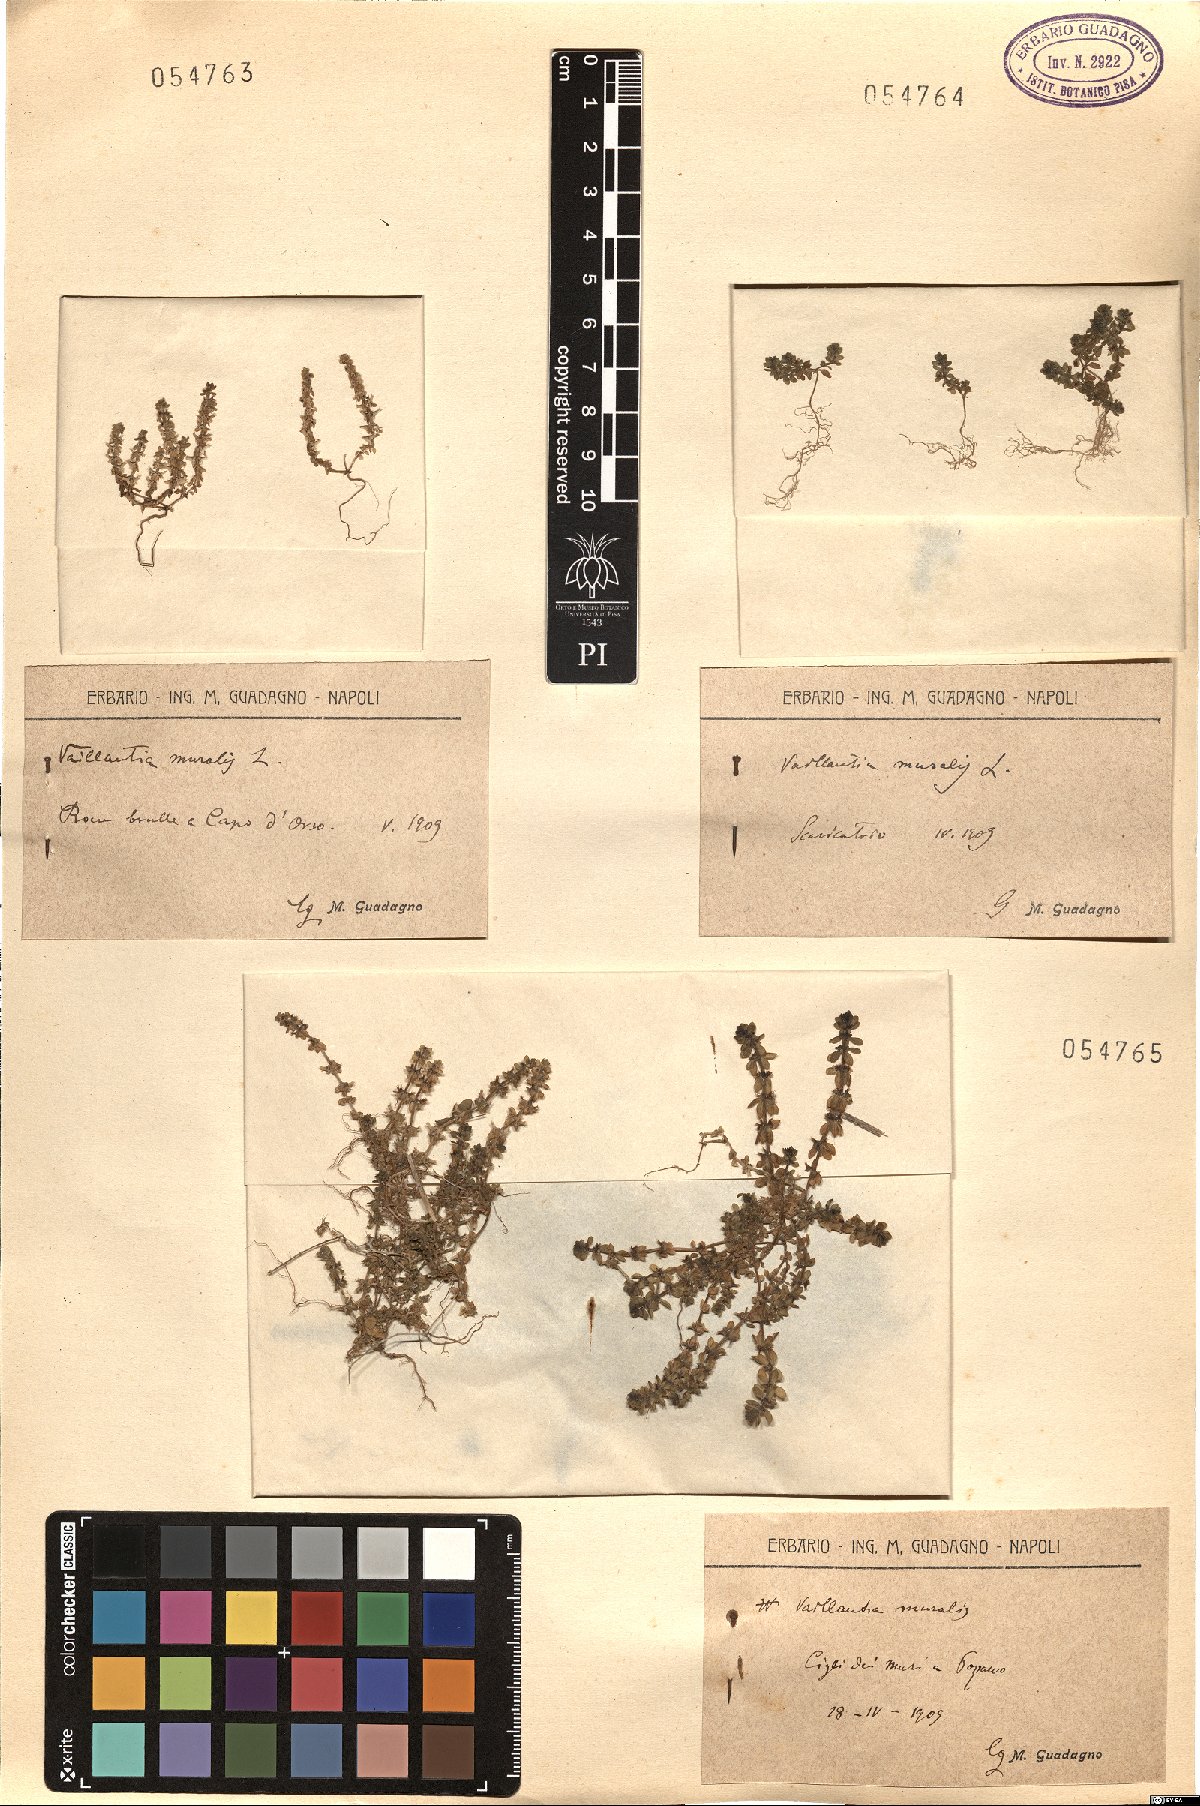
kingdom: Plantae
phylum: Tracheophyta
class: Magnoliopsida
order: Gentianales
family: Rubiaceae
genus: Valantia
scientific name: Valantia muralis
